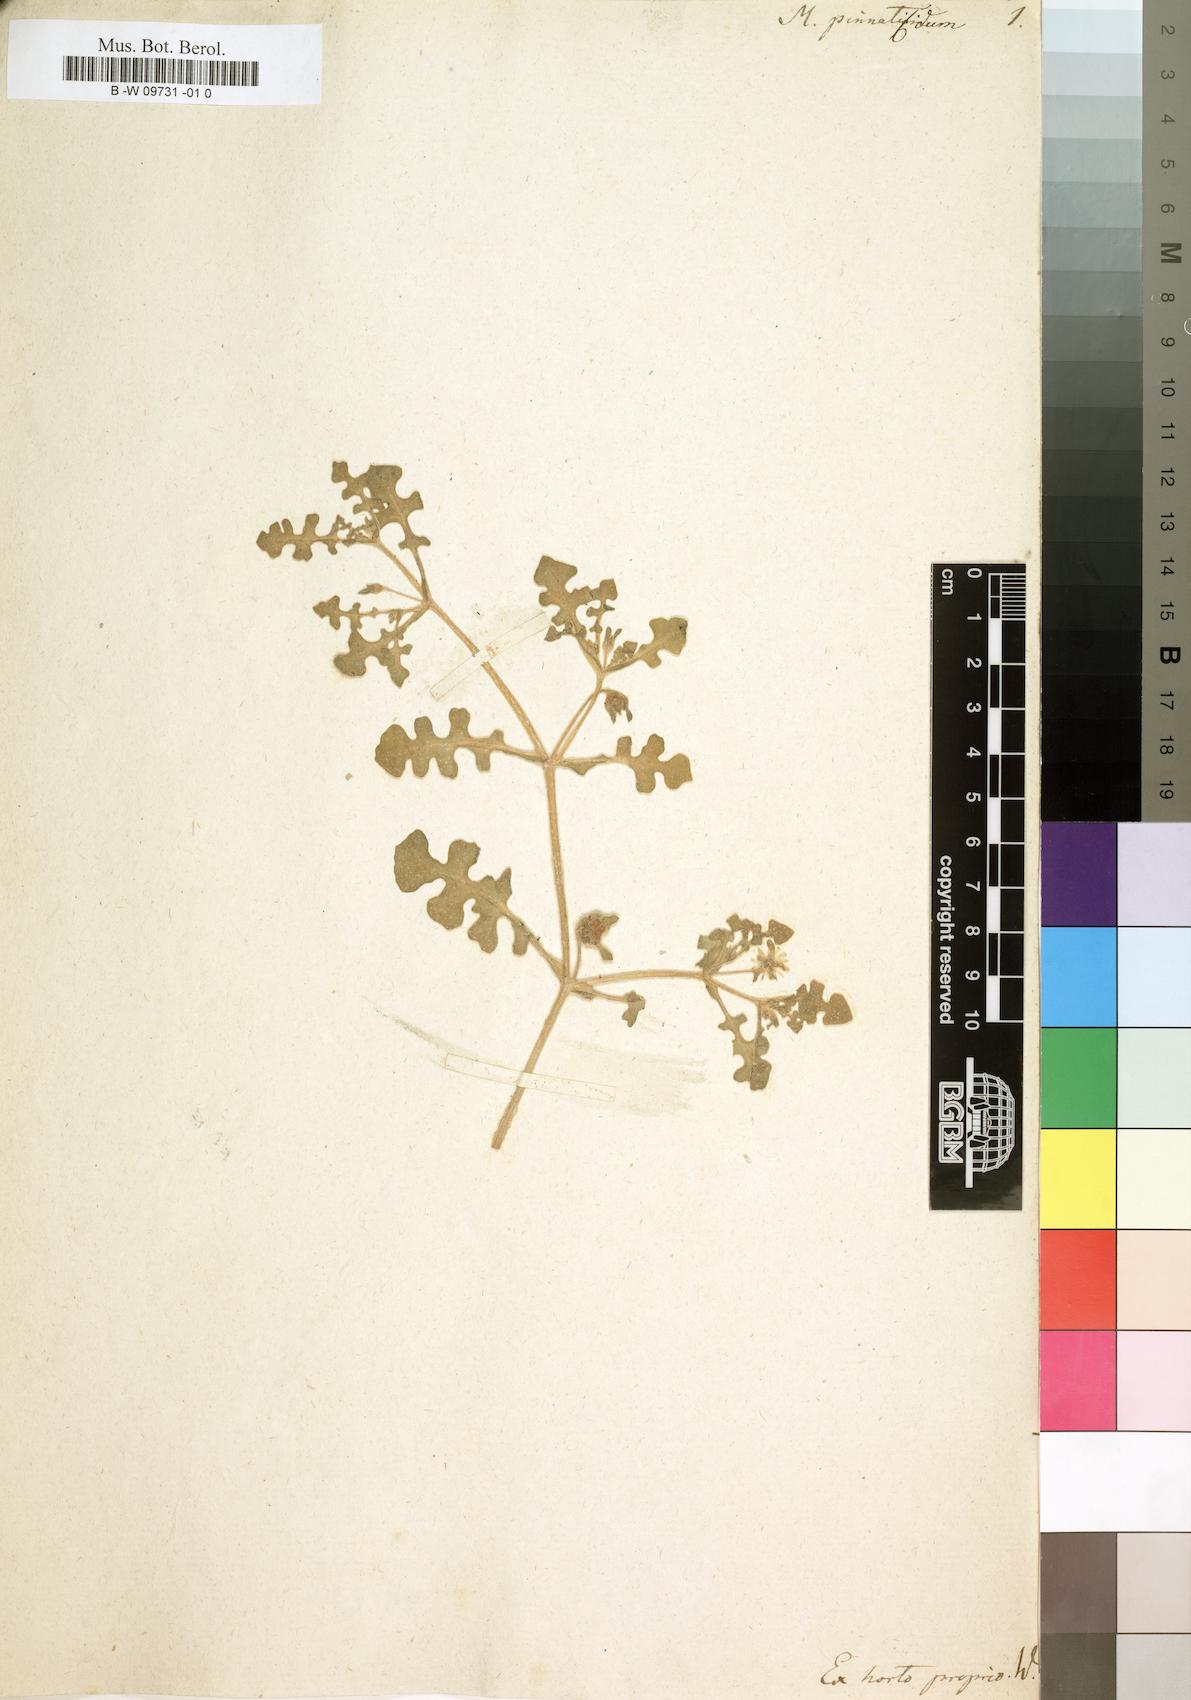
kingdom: Plantae
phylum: Tracheophyta
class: Magnoliopsida
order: Caryophyllales
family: Aizoaceae
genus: Cleretum
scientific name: Cleretum pinnatifidum
